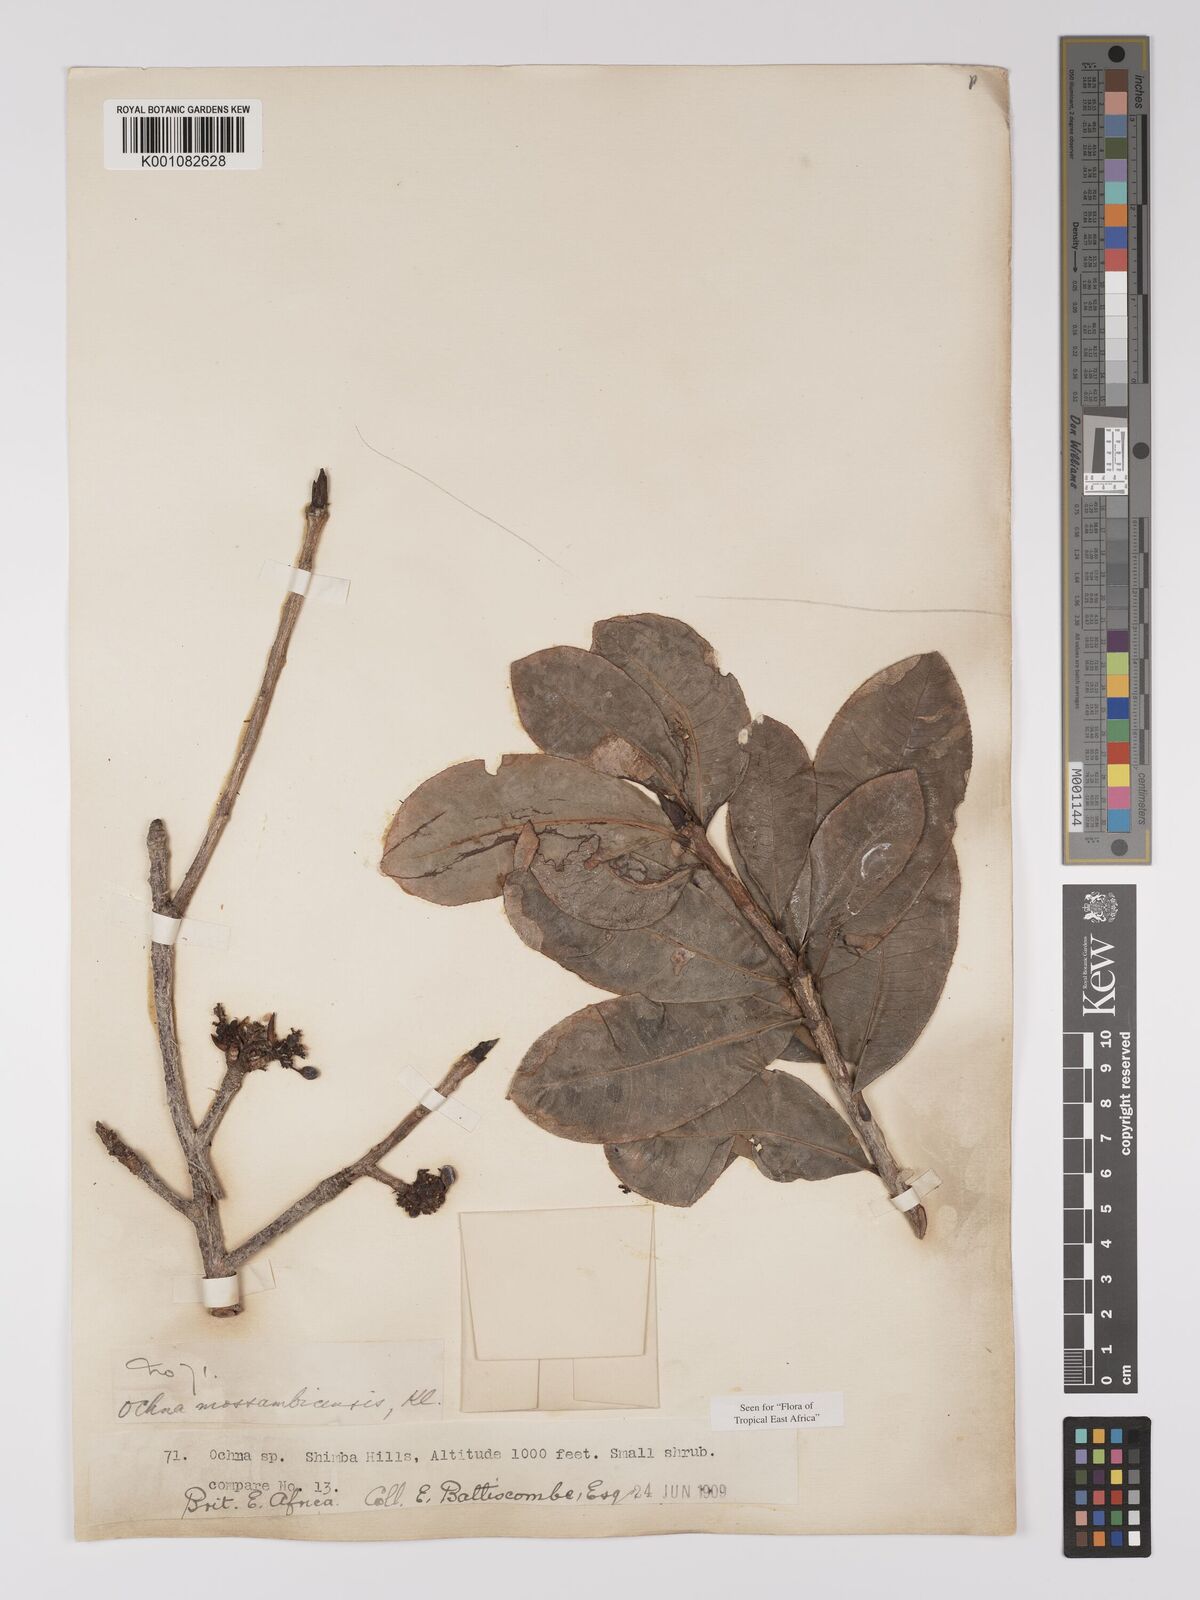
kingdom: Plantae
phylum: Tracheophyta
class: Magnoliopsida
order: Malpighiales
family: Ochnaceae
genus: Ochna
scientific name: Ochna atropurpurea
